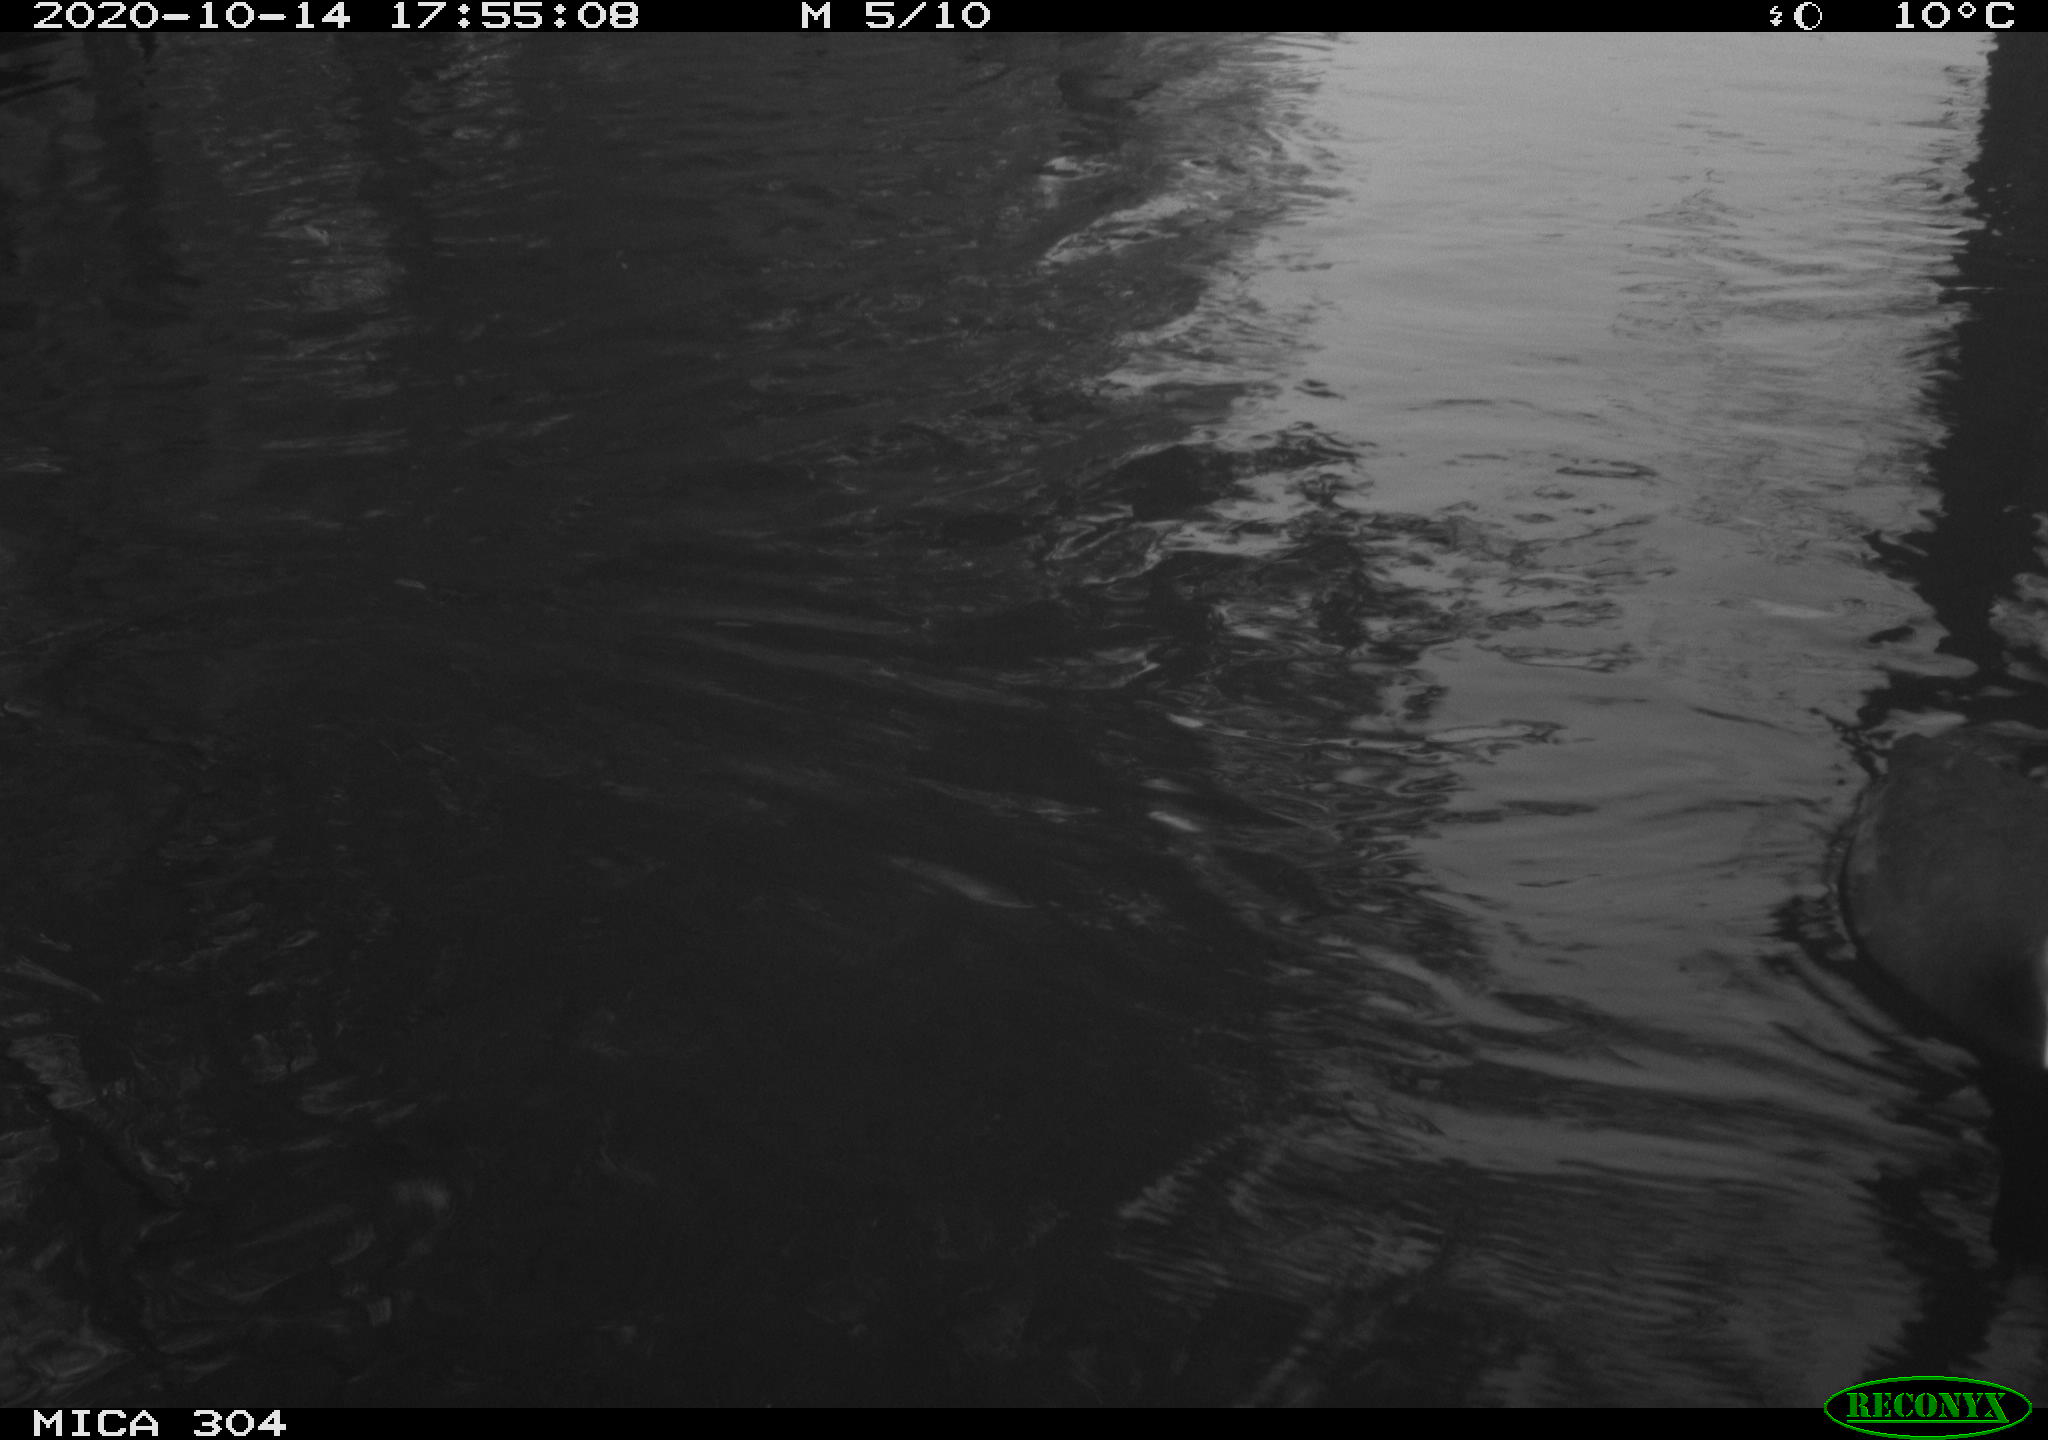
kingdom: Animalia
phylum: Chordata
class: Aves
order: Gruiformes
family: Rallidae
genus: Gallinula
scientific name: Gallinula chloropus
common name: Common moorhen
